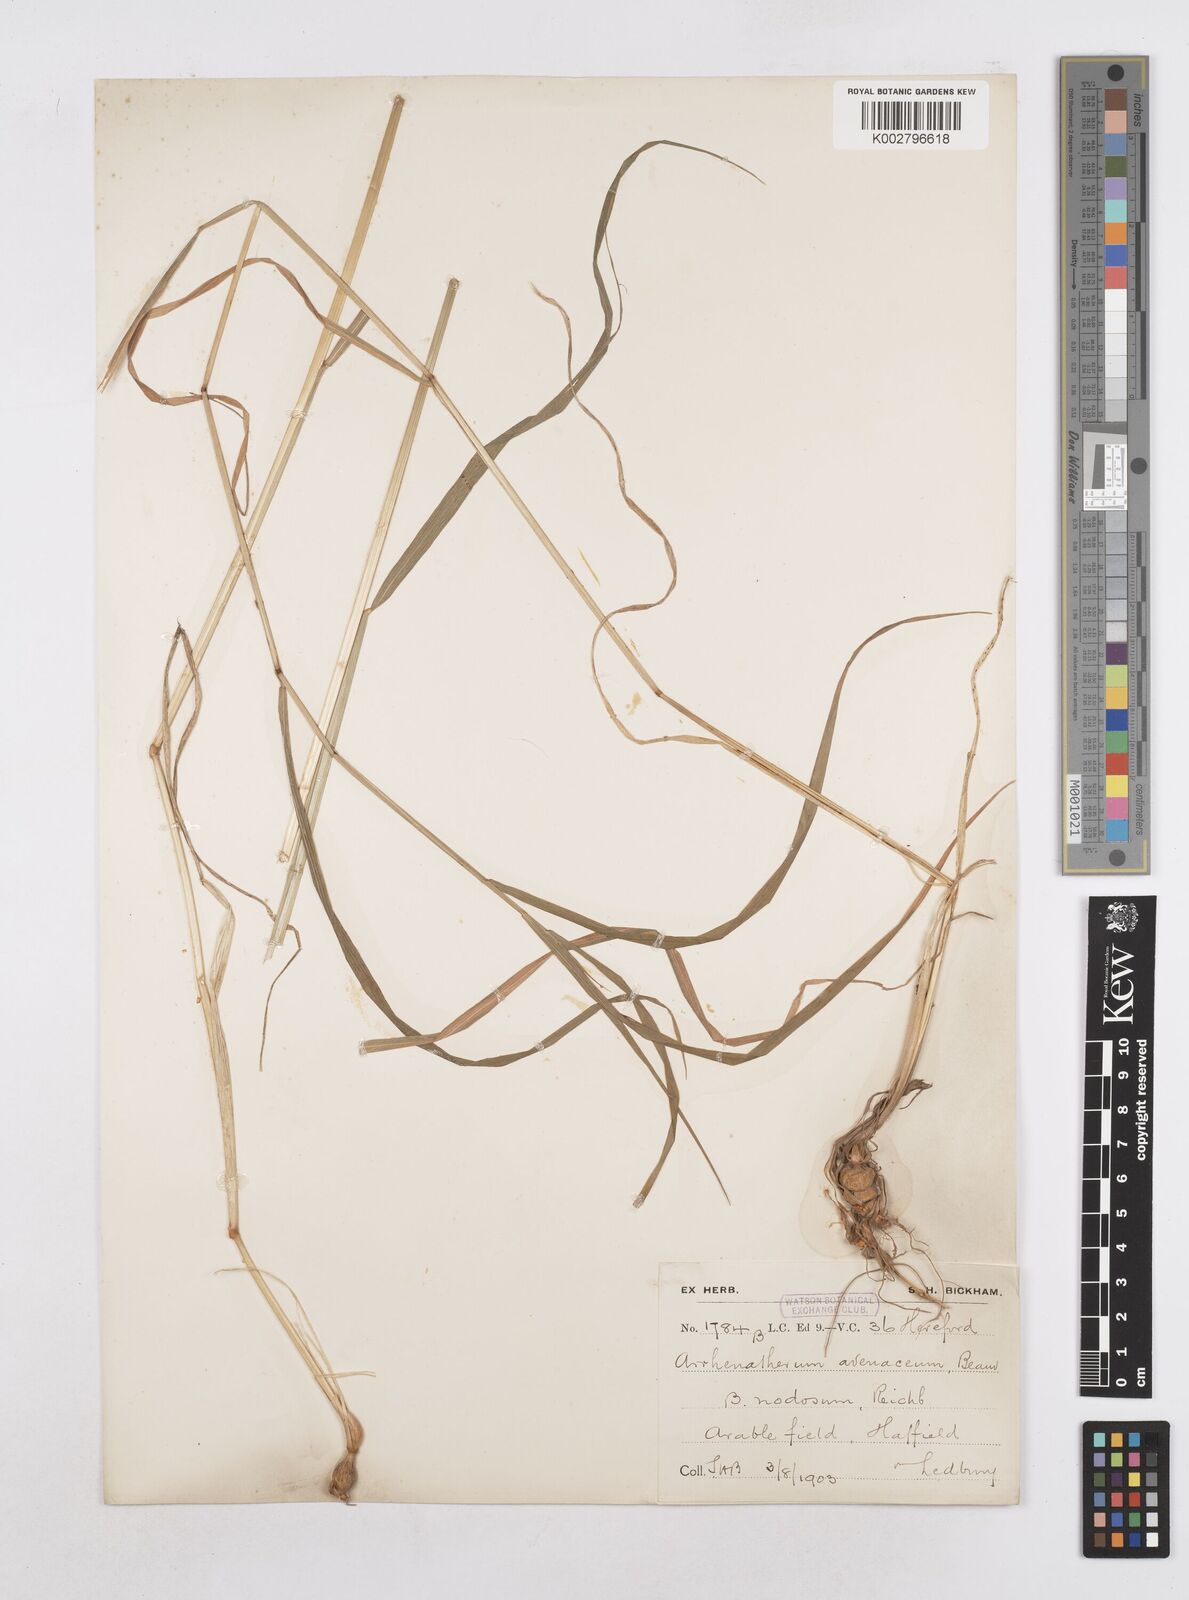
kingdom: Plantae
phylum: Tracheophyta
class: Liliopsida
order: Poales
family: Poaceae
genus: Arrhenatherum
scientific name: Arrhenatherum elatius
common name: Tall oatgrass
